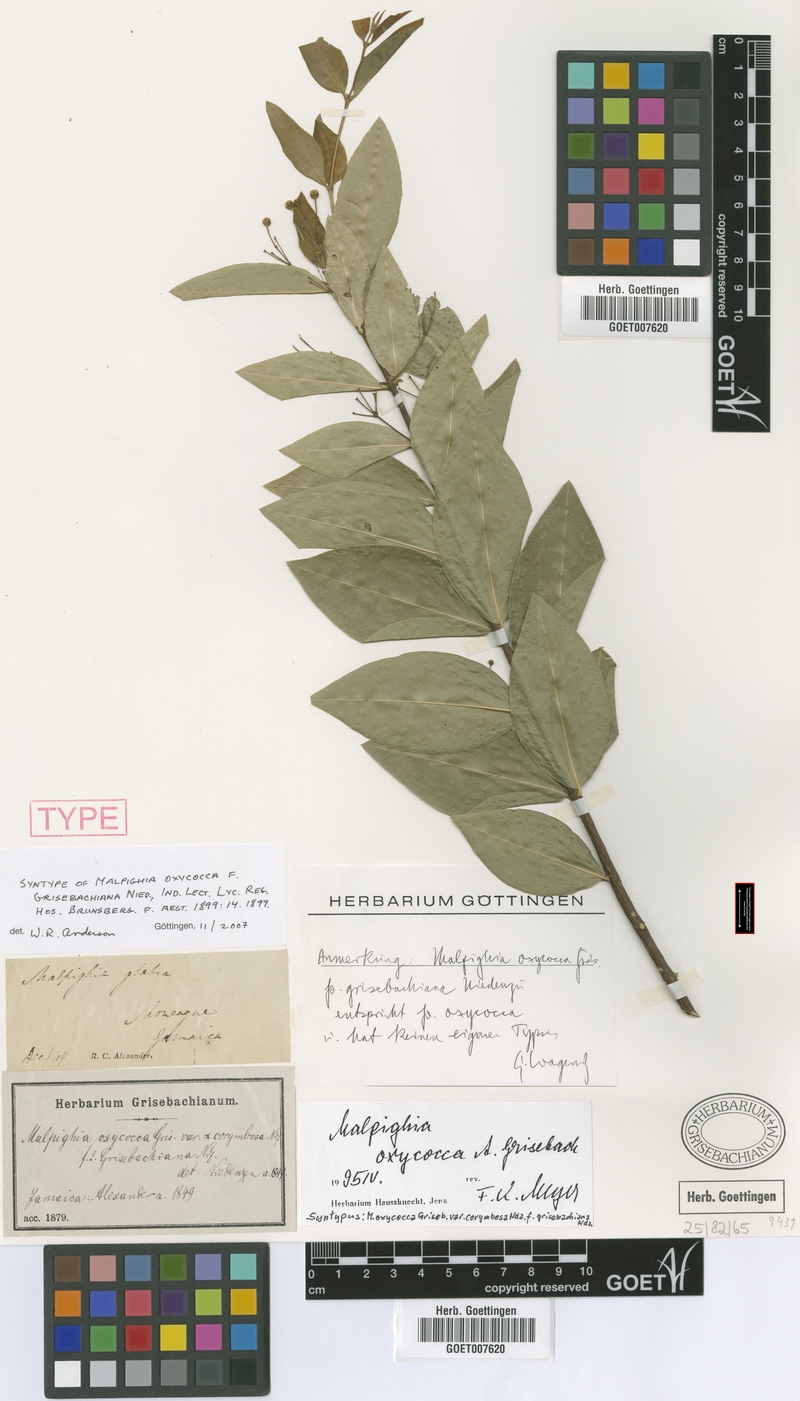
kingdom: Plantae
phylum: Tracheophyta
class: Magnoliopsida
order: Malpighiales
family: Malpighiaceae
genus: Malpighia
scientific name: Malpighia oxycocca
